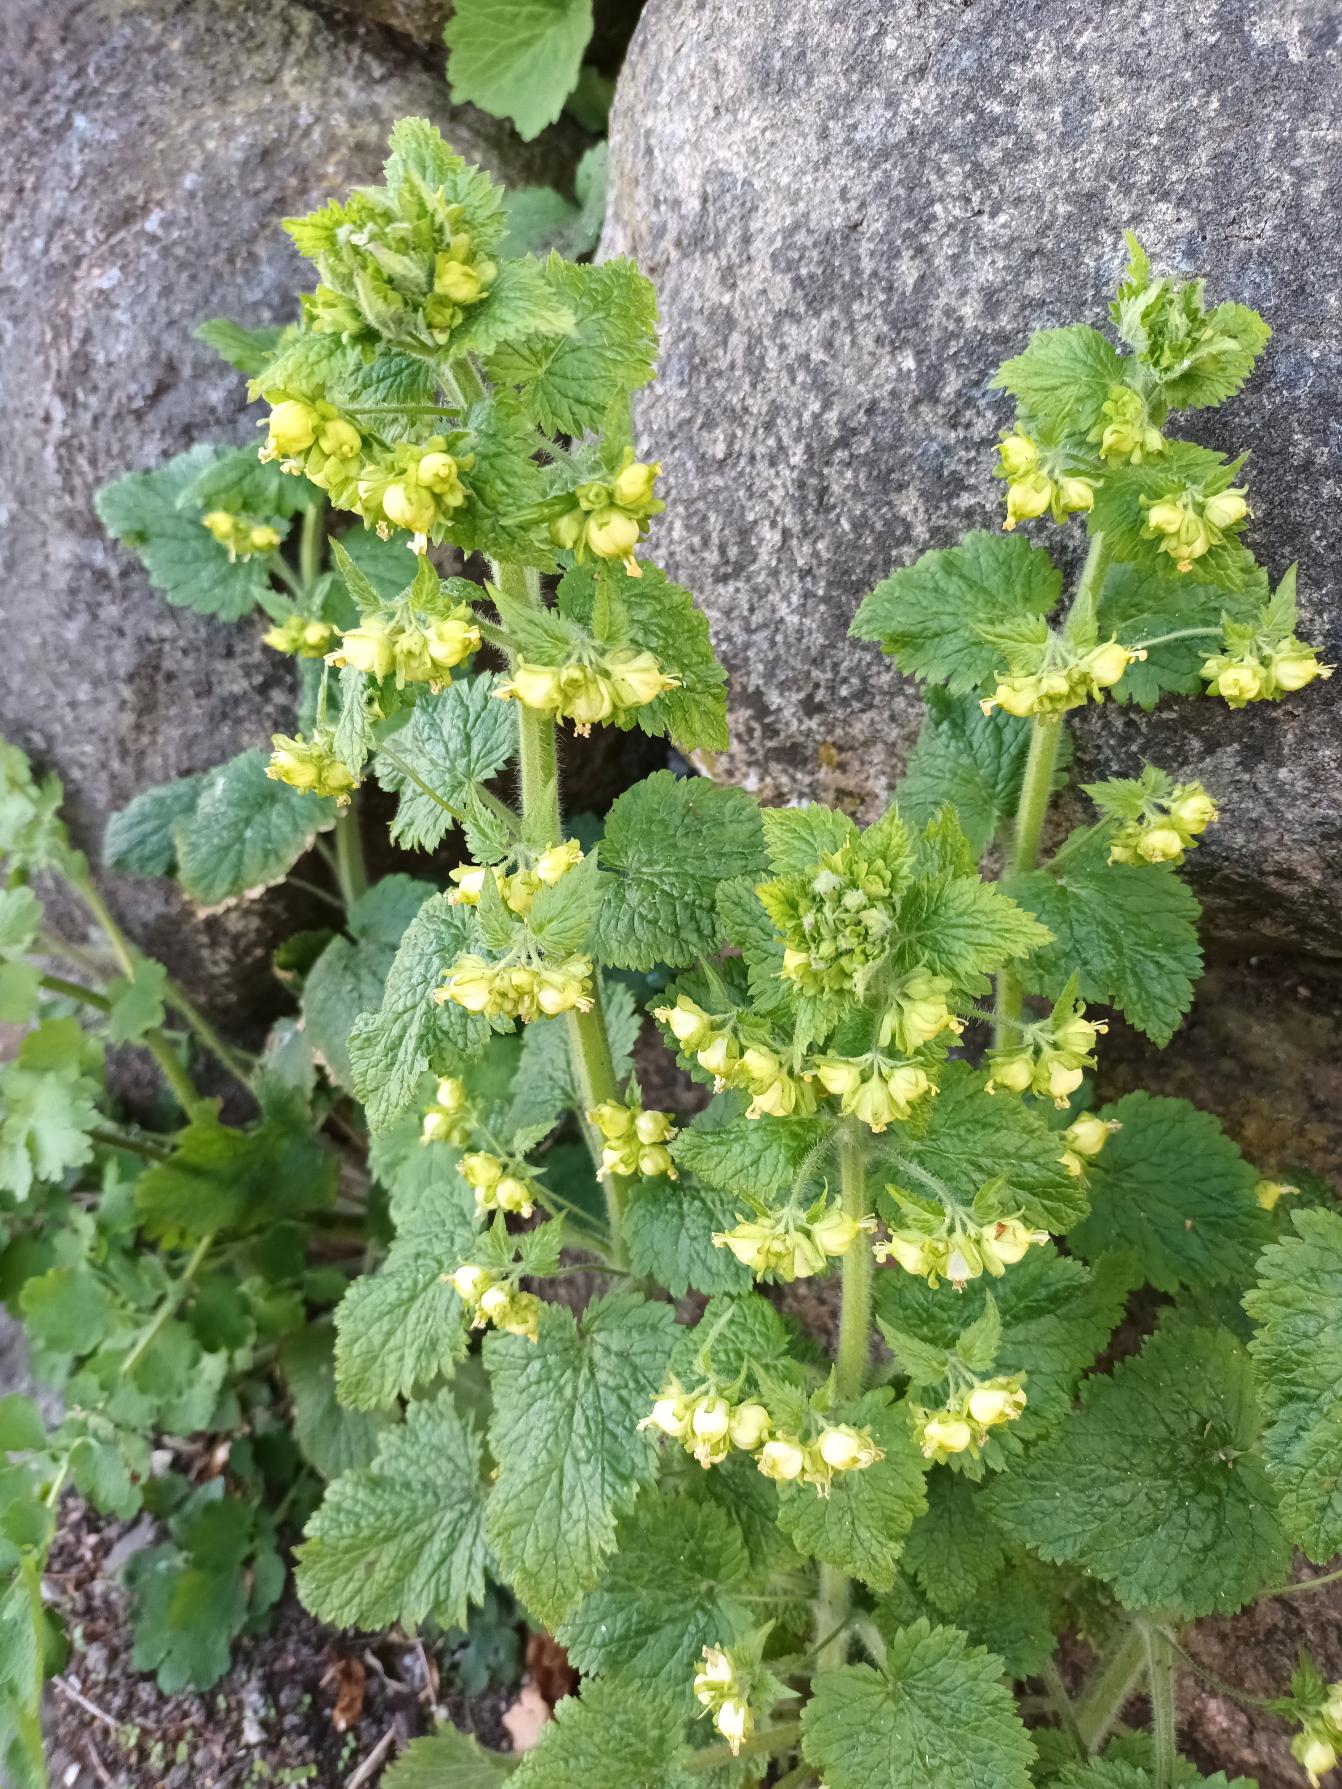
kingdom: Plantae
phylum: Tracheophyta
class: Magnoliopsida
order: Lamiales
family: Scrophulariaceae
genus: Scrophularia
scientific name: Scrophularia vernalis
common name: Vår-brunrod
